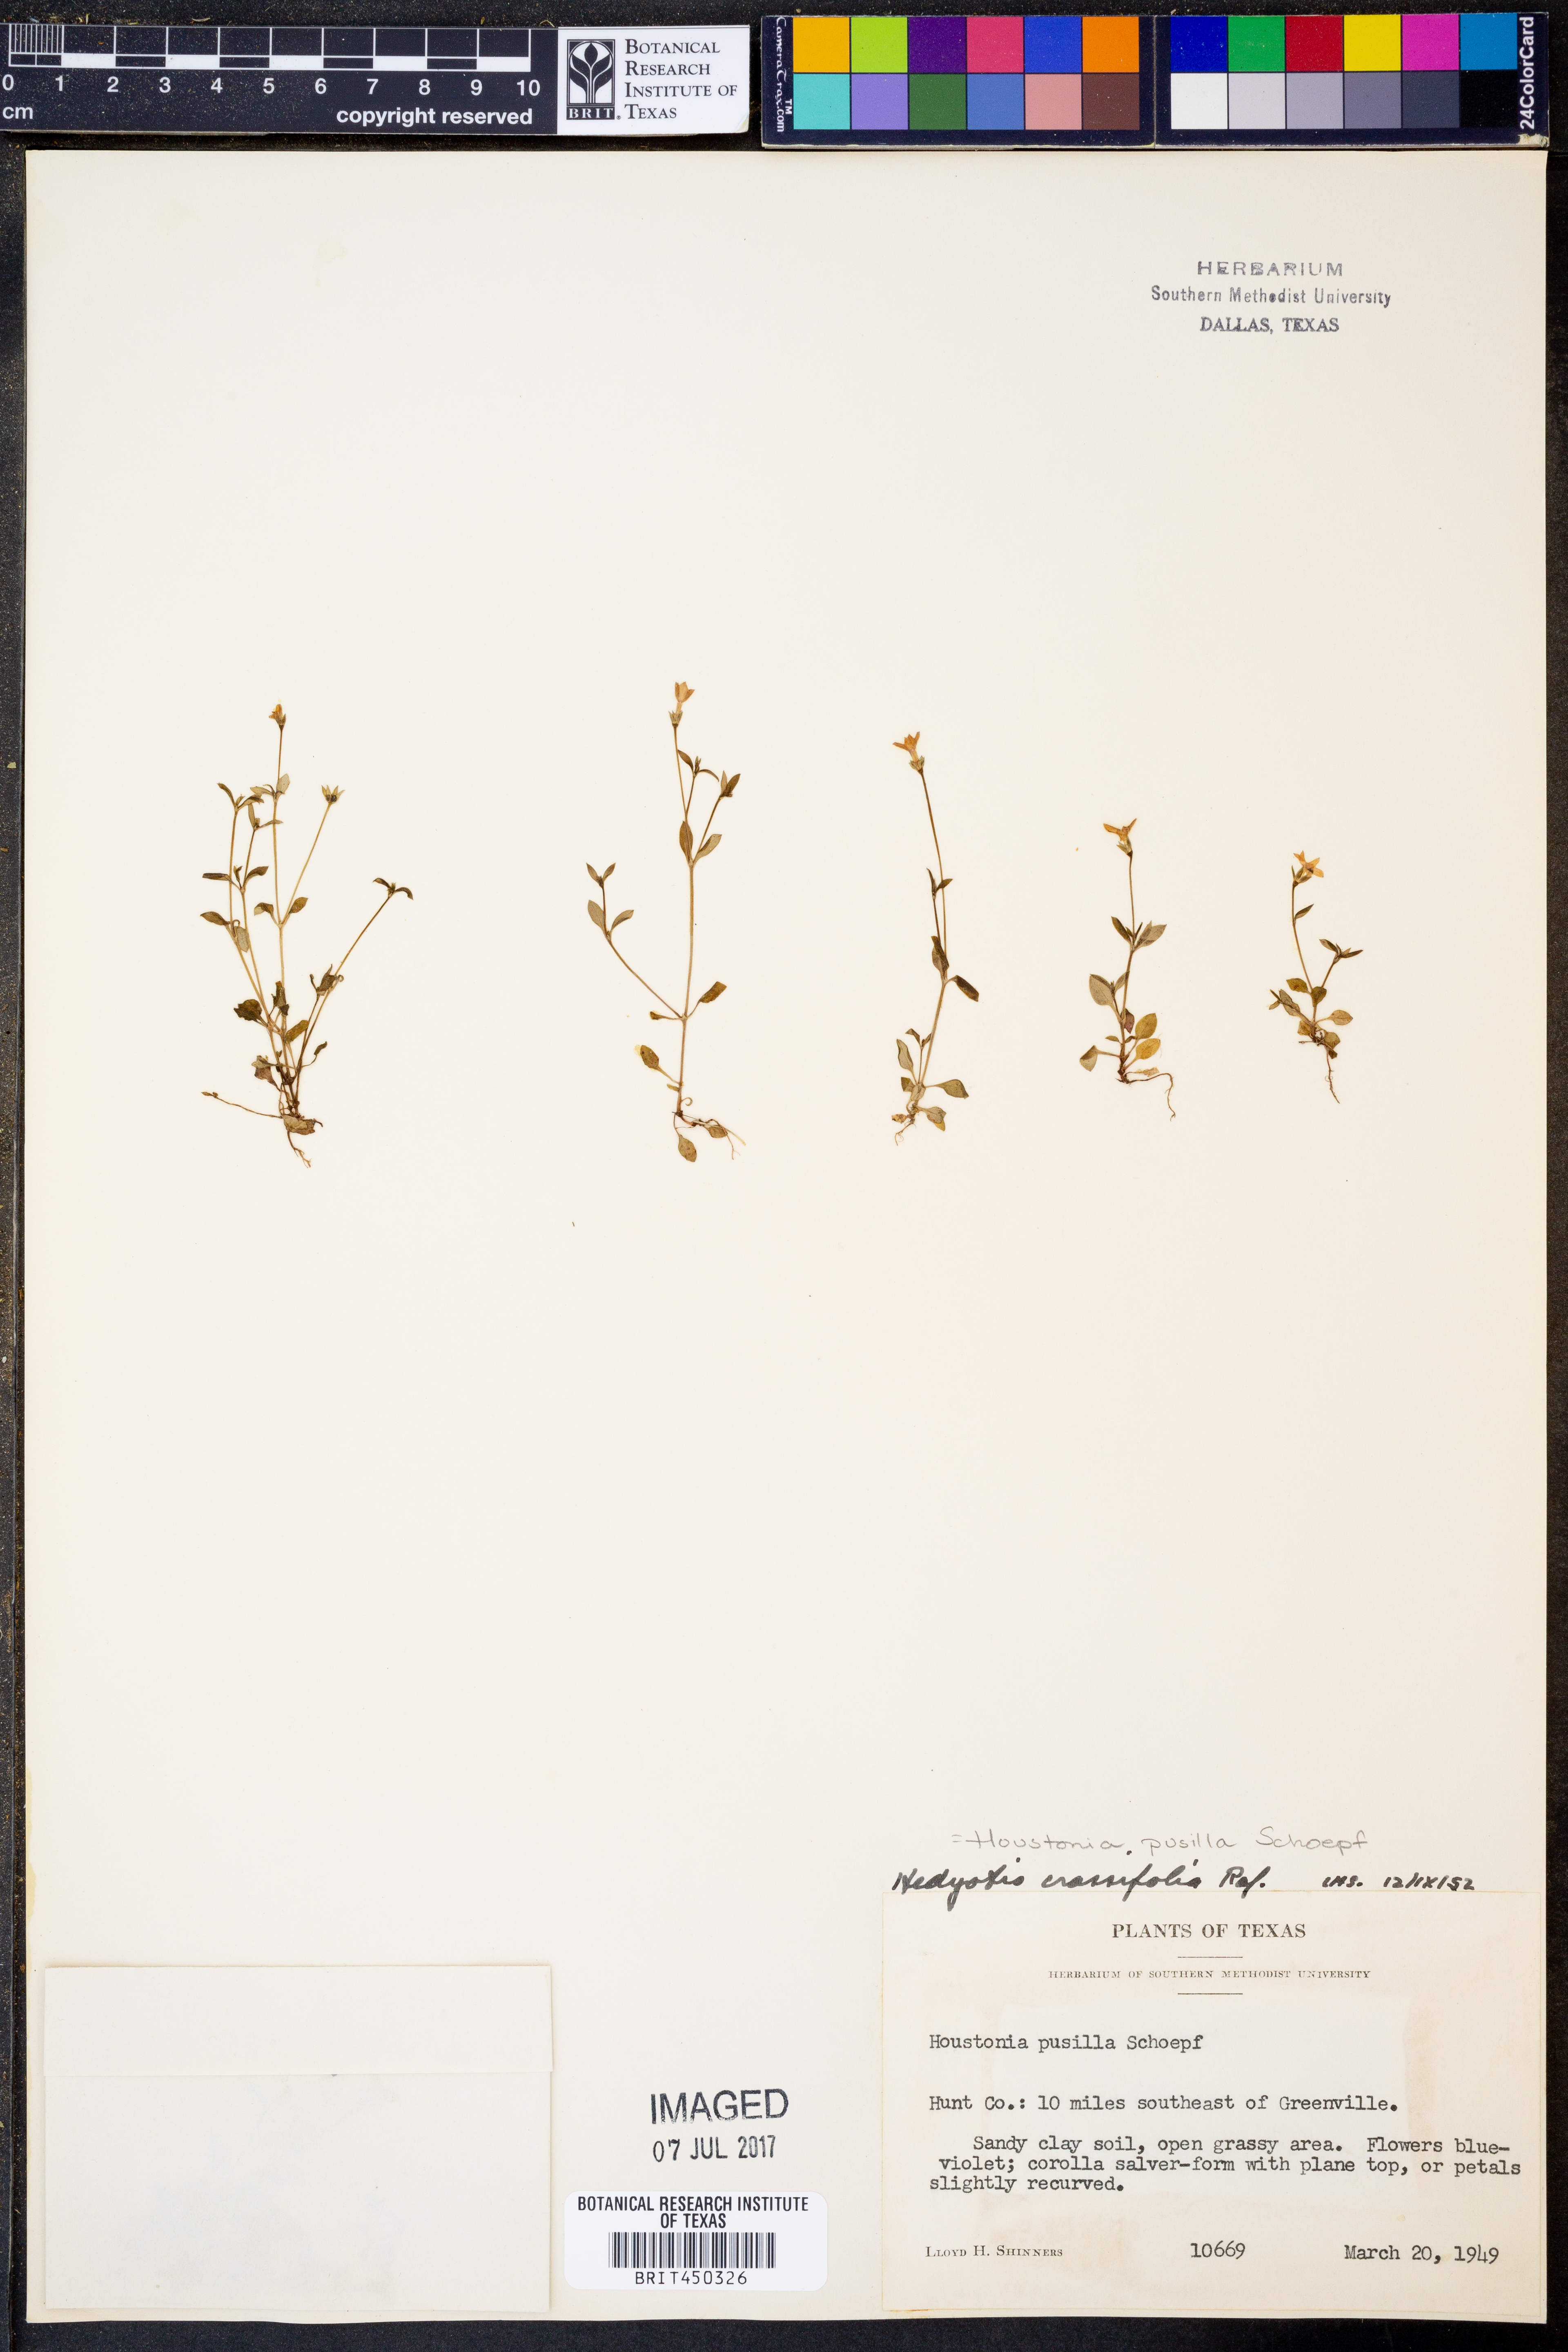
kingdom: Plantae
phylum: Tracheophyta
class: Magnoliopsida
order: Gentianales
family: Rubiaceae
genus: Oldenlandia
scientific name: Oldenlandia corymbosa
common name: Flat-top mille graines
